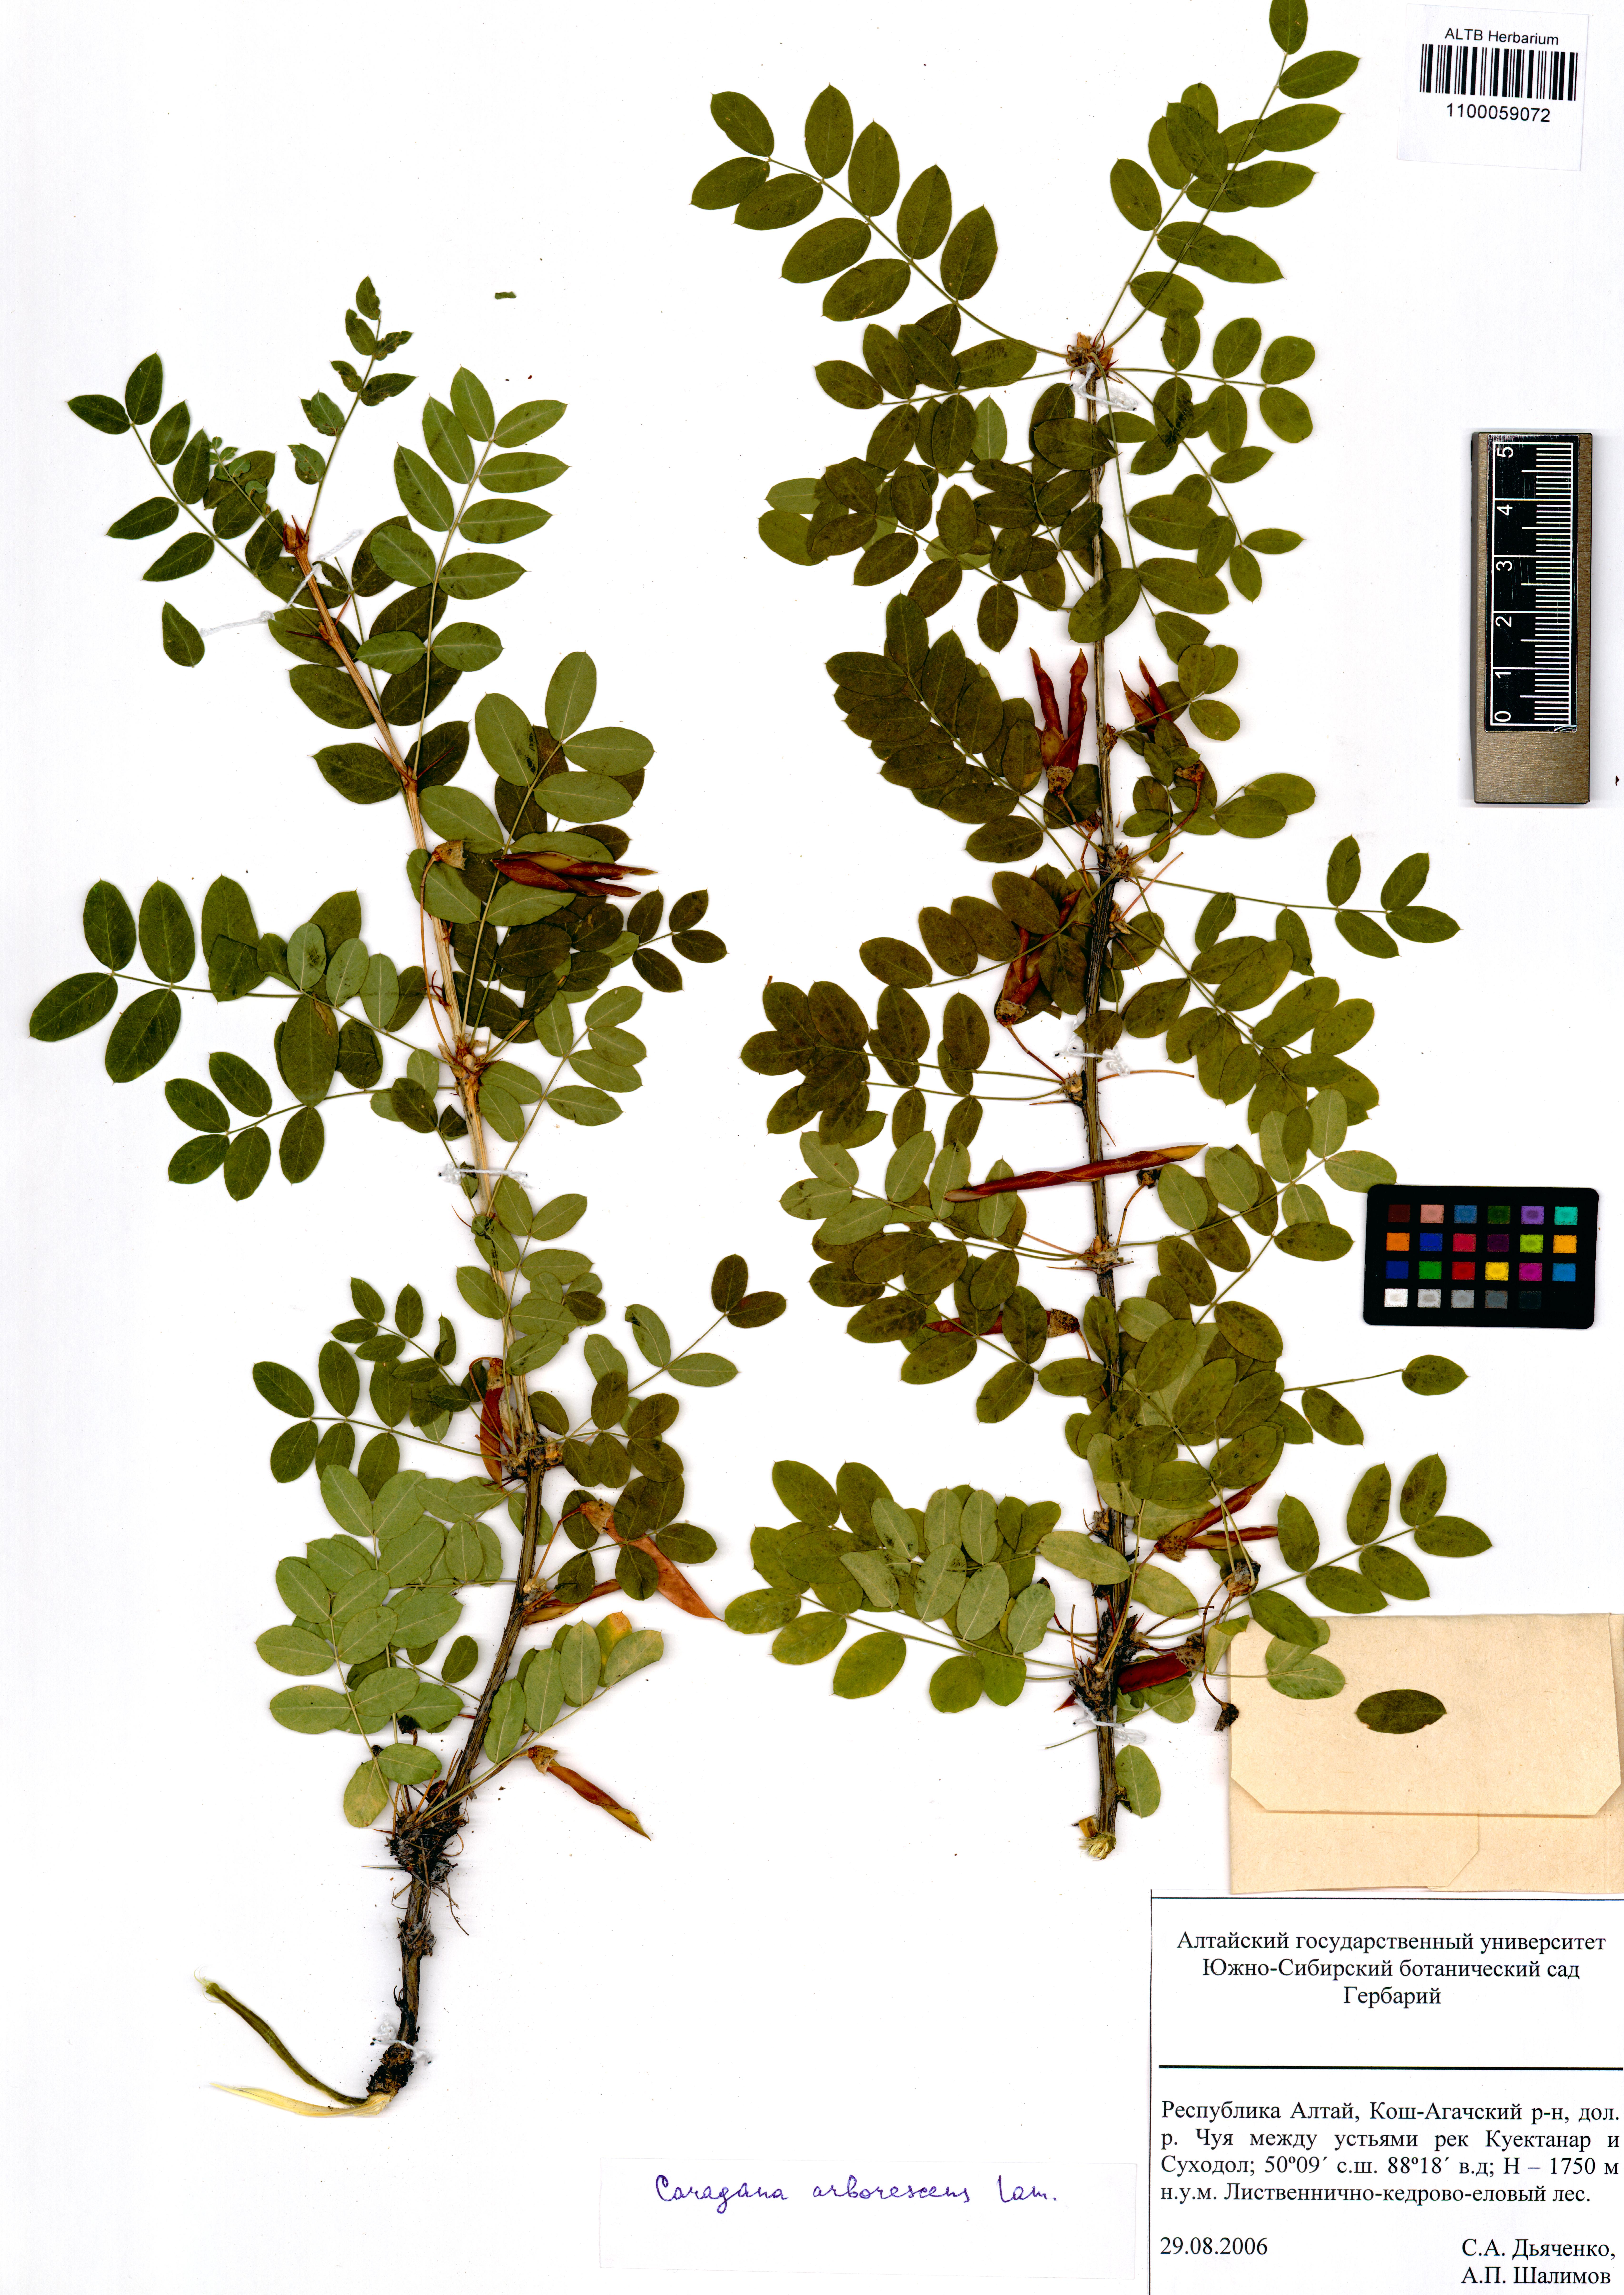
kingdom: Plantae
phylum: Tracheophyta
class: Magnoliopsida
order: Fabales
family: Fabaceae
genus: Caragana
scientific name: Caragana arborescens
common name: Siberian peashrub
